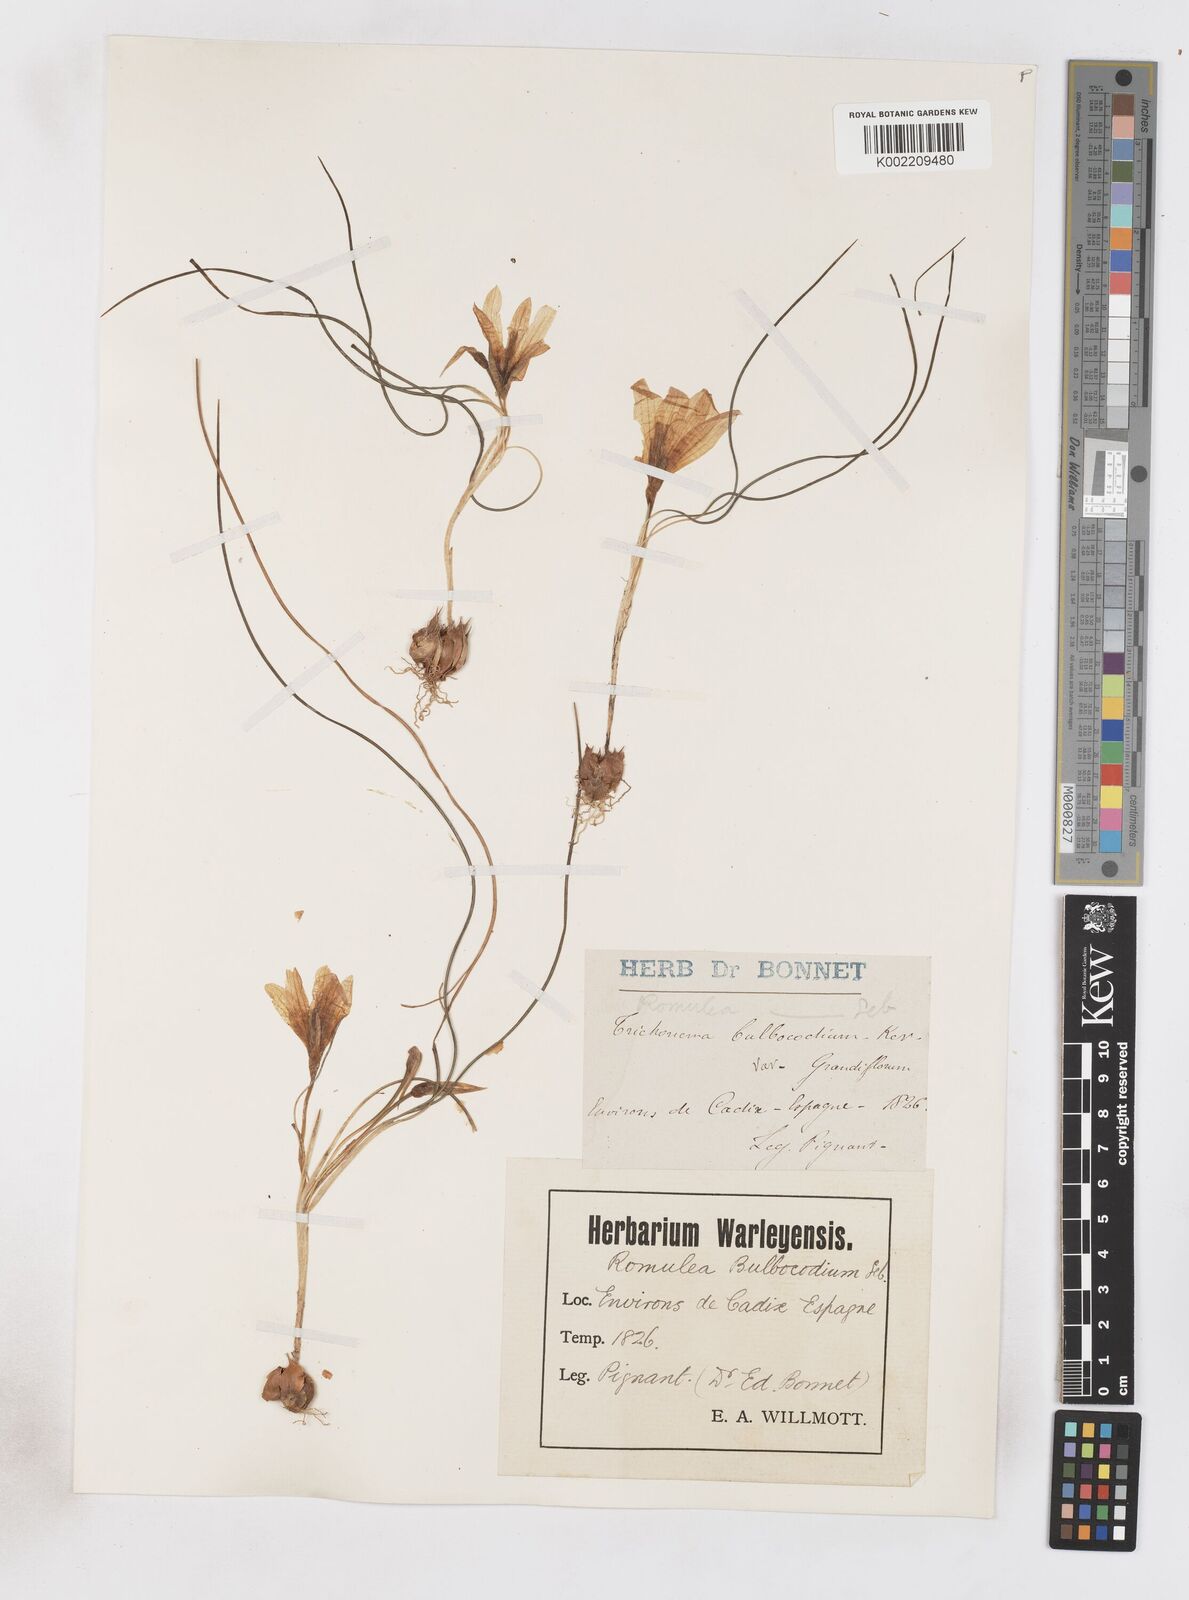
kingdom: Plantae
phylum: Tracheophyta
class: Liliopsida
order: Asparagales
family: Iridaceae
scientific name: Iridaceae
